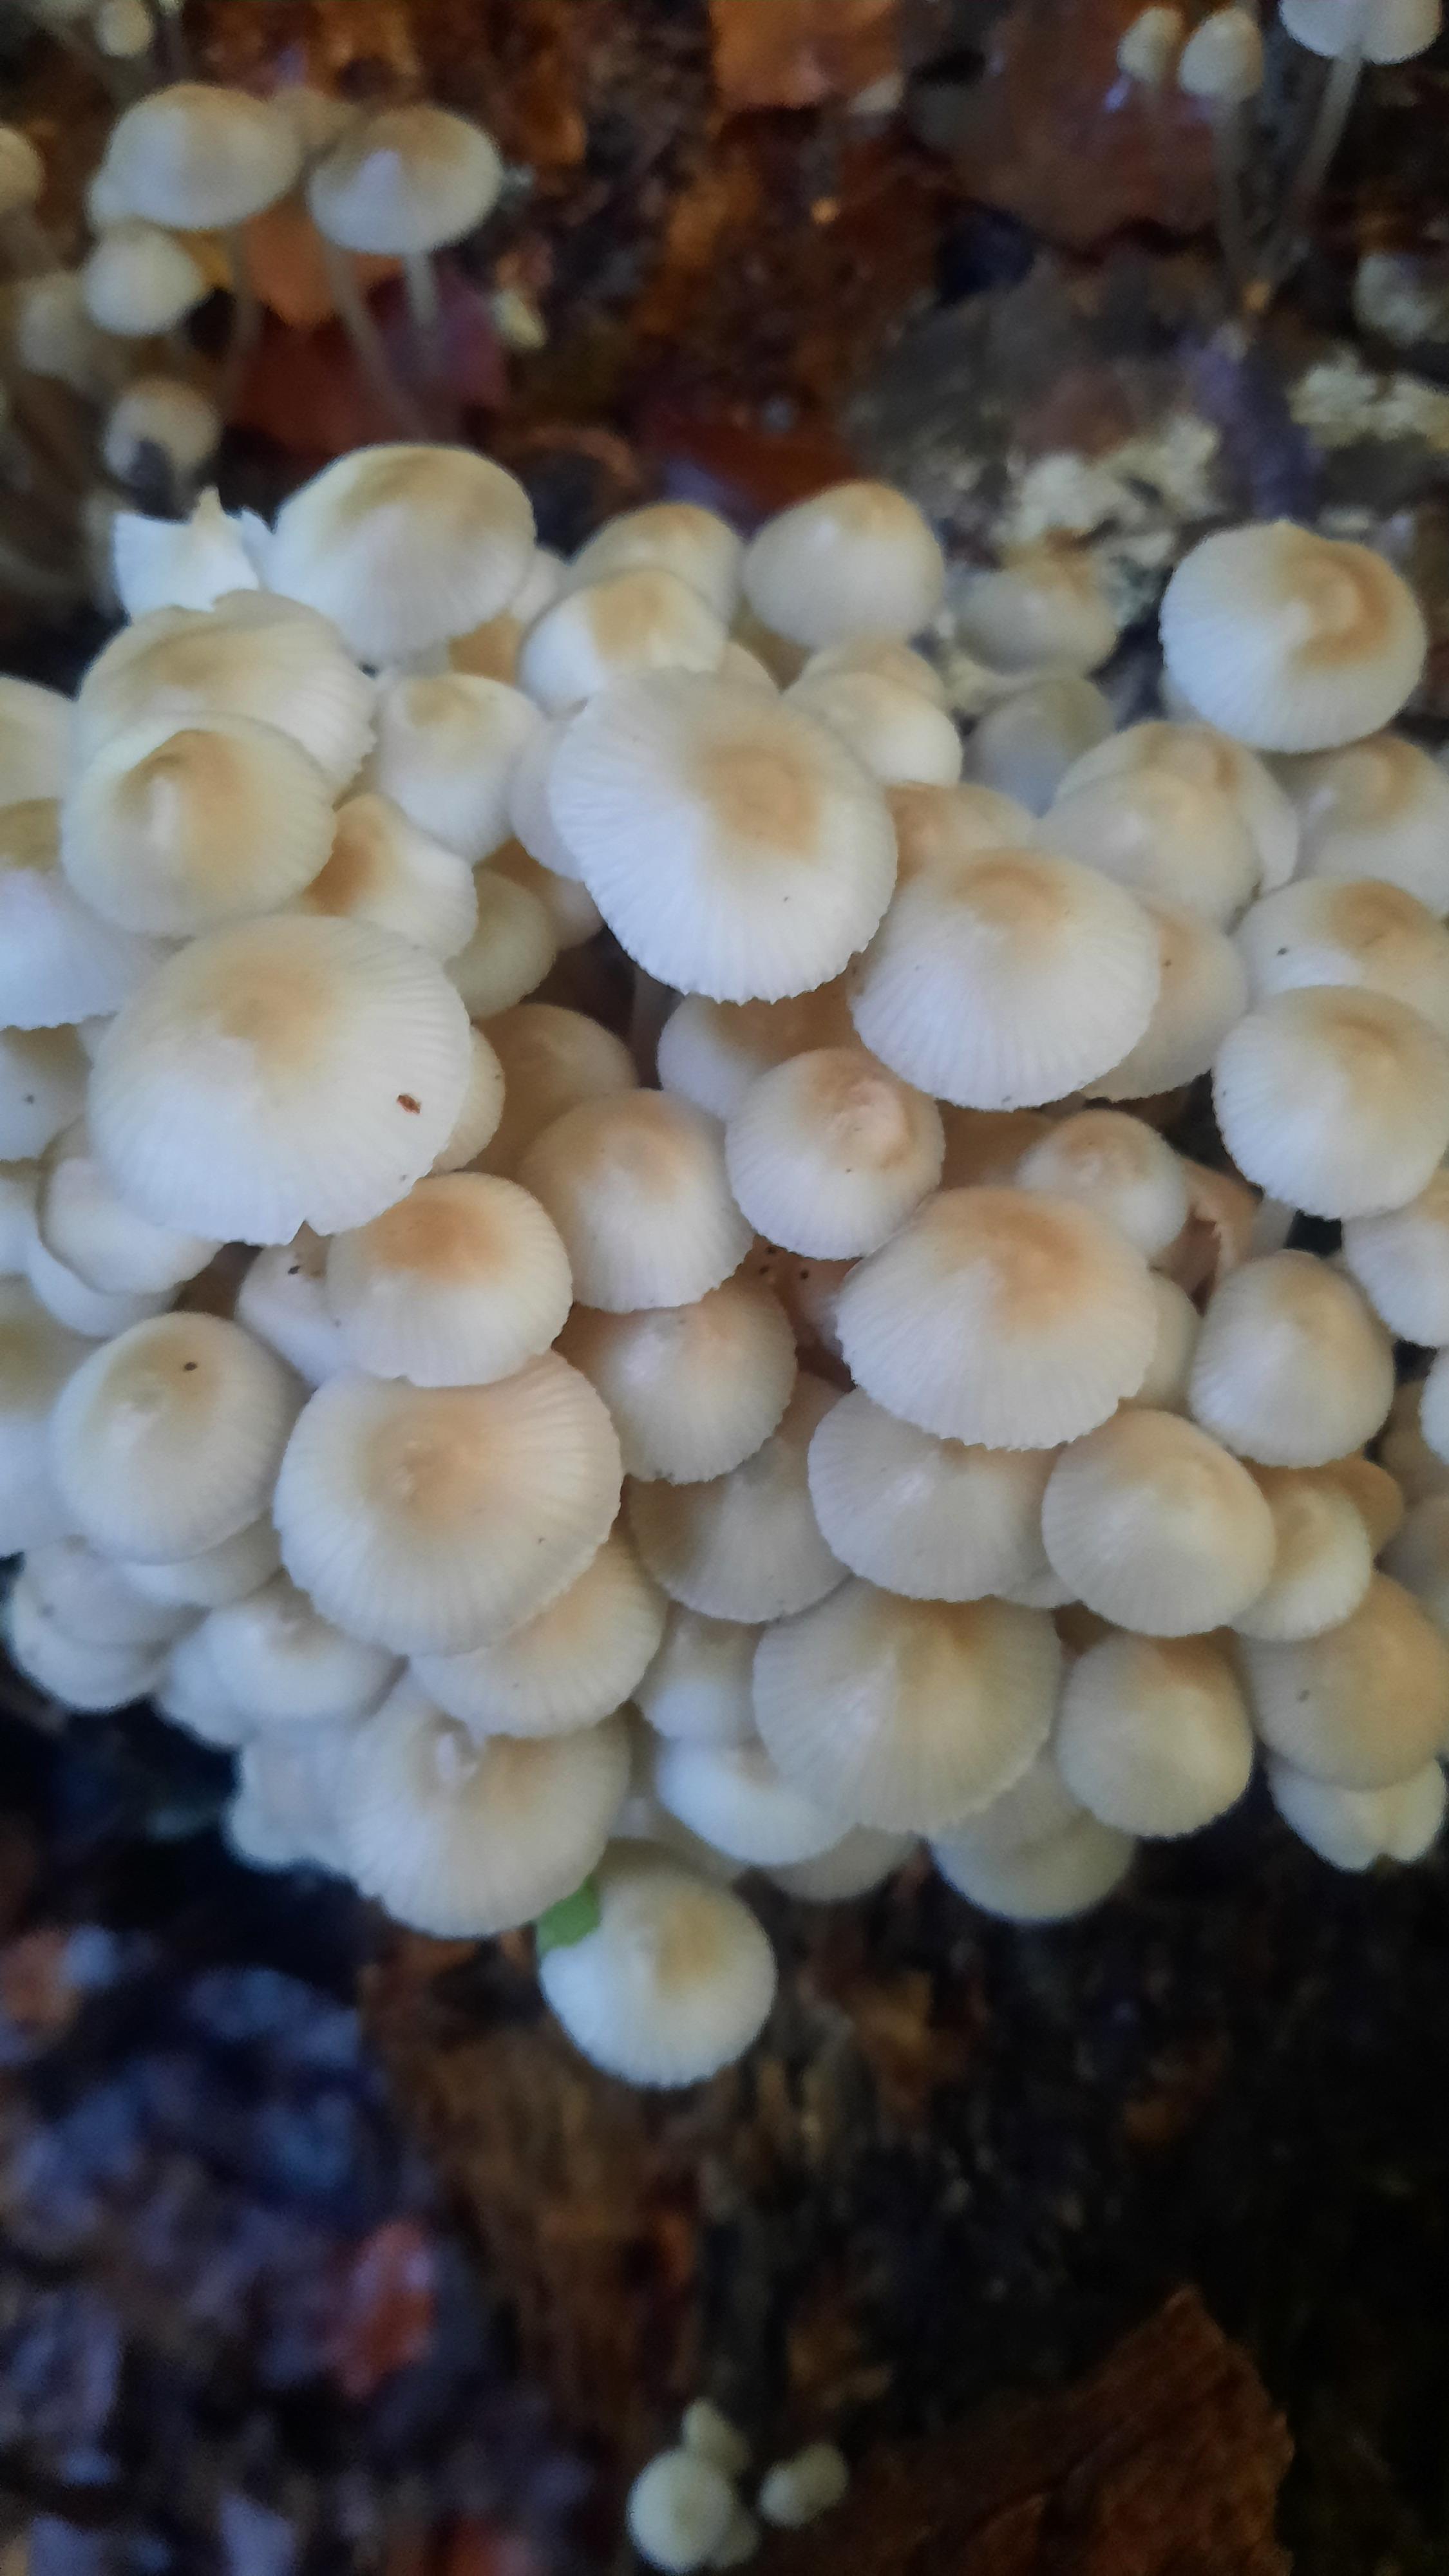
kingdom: Fungi
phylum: Basidiomycota
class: Agaricomycetes
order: Agaricales
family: Mycenaceae
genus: Mycena
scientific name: Mycena
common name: huesvamp
